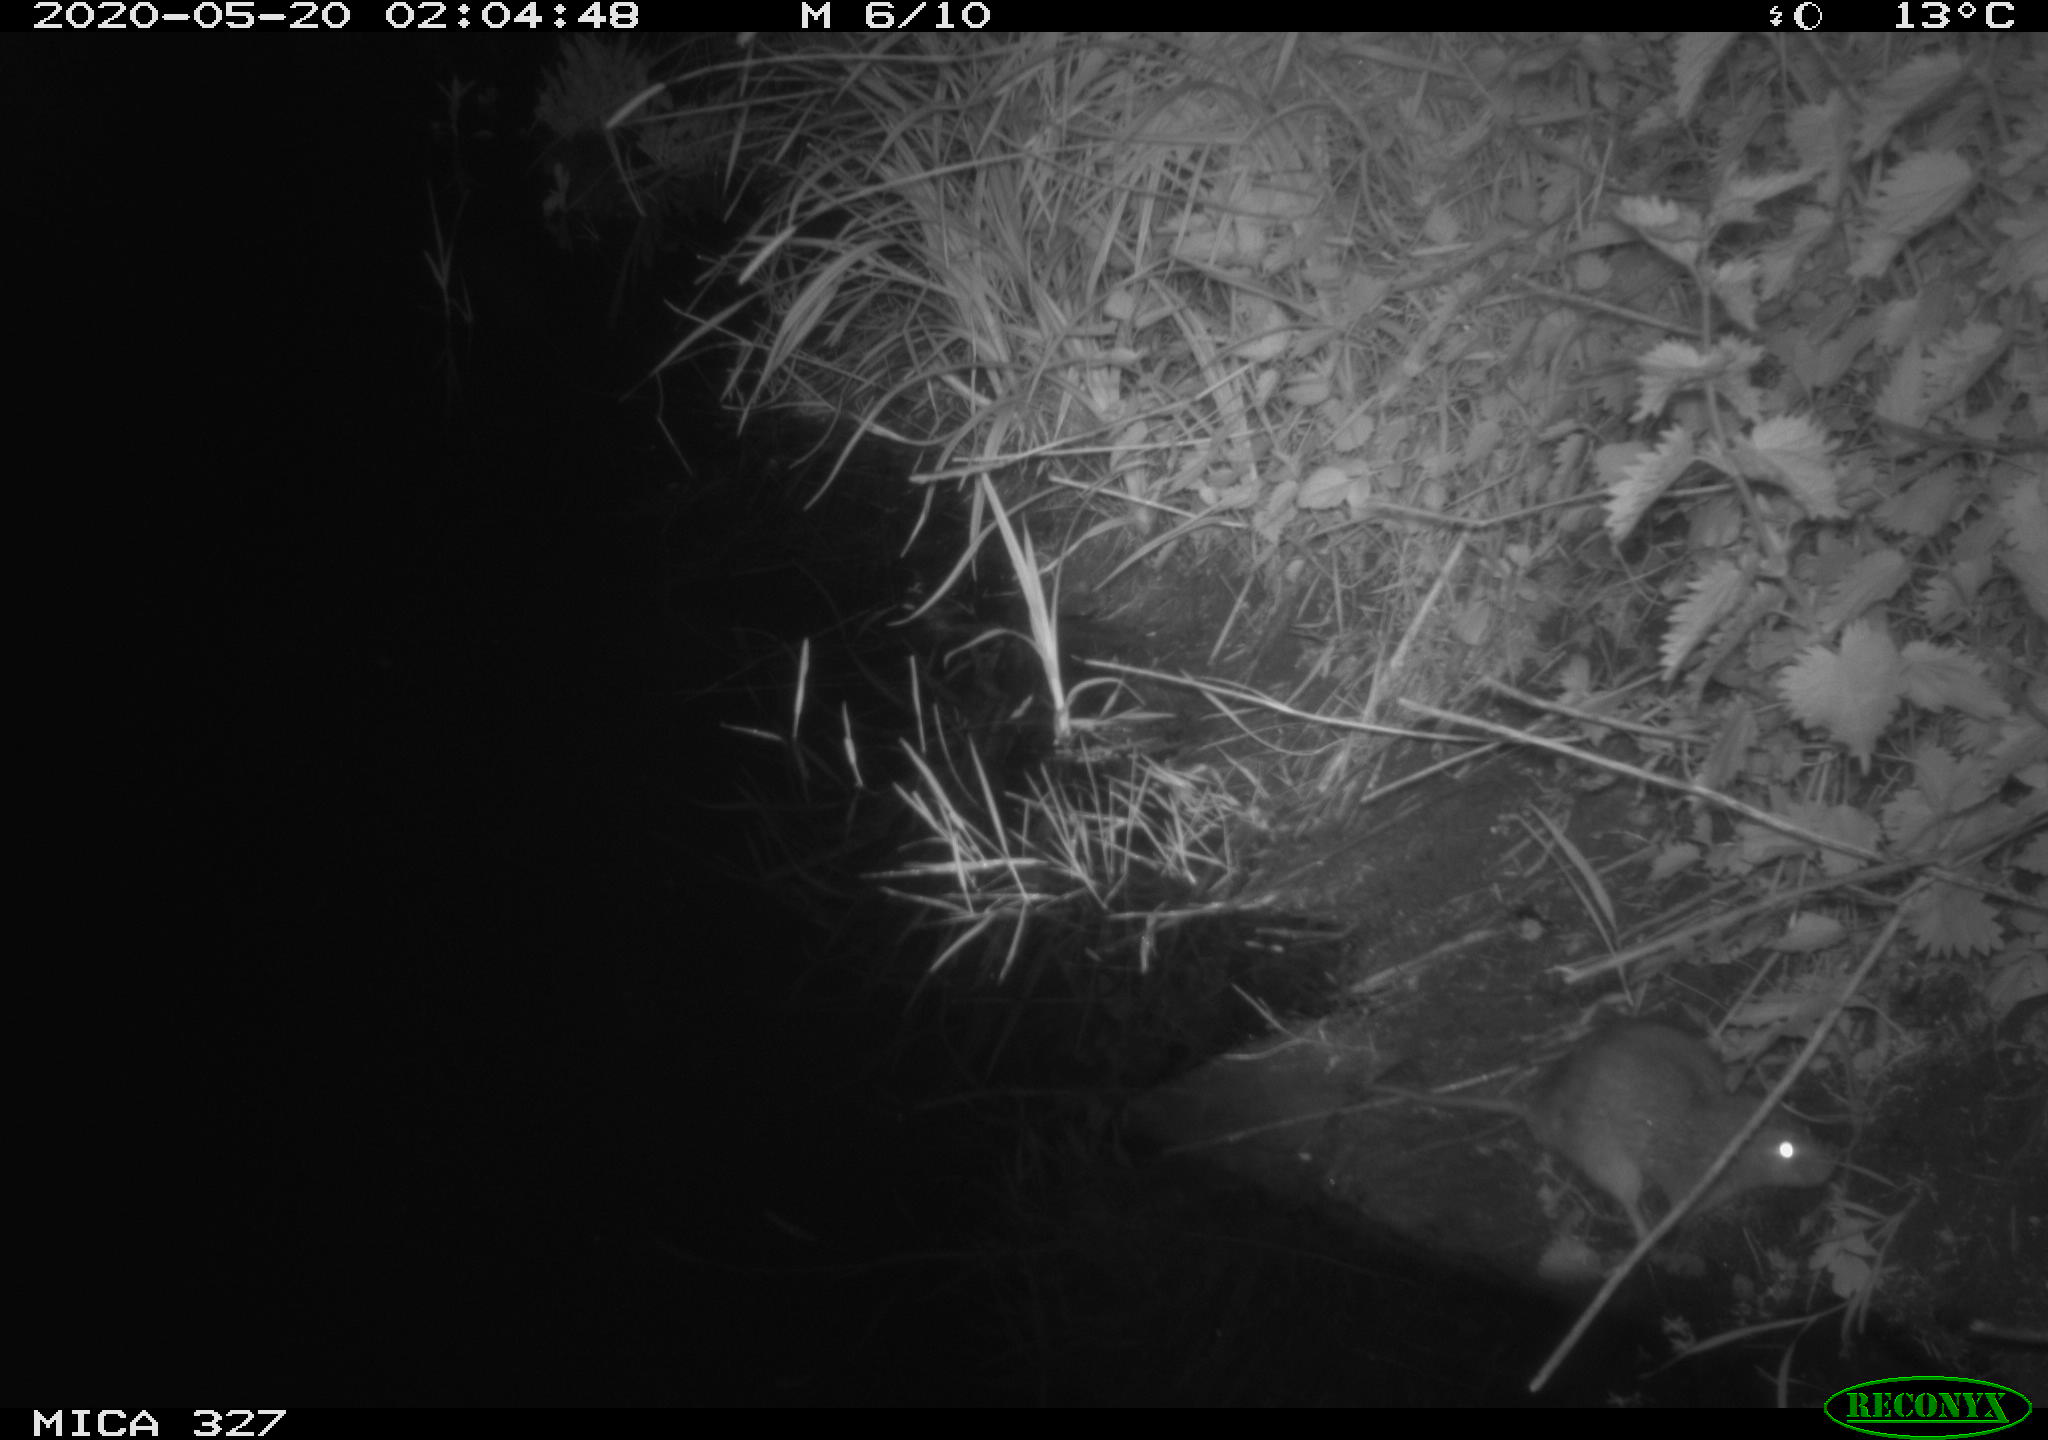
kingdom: Animalia
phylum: Chordata
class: Mammalia
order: Rodentia
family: Muridae
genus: Rattus
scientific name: Rattus norvegicus
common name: Brown rat
